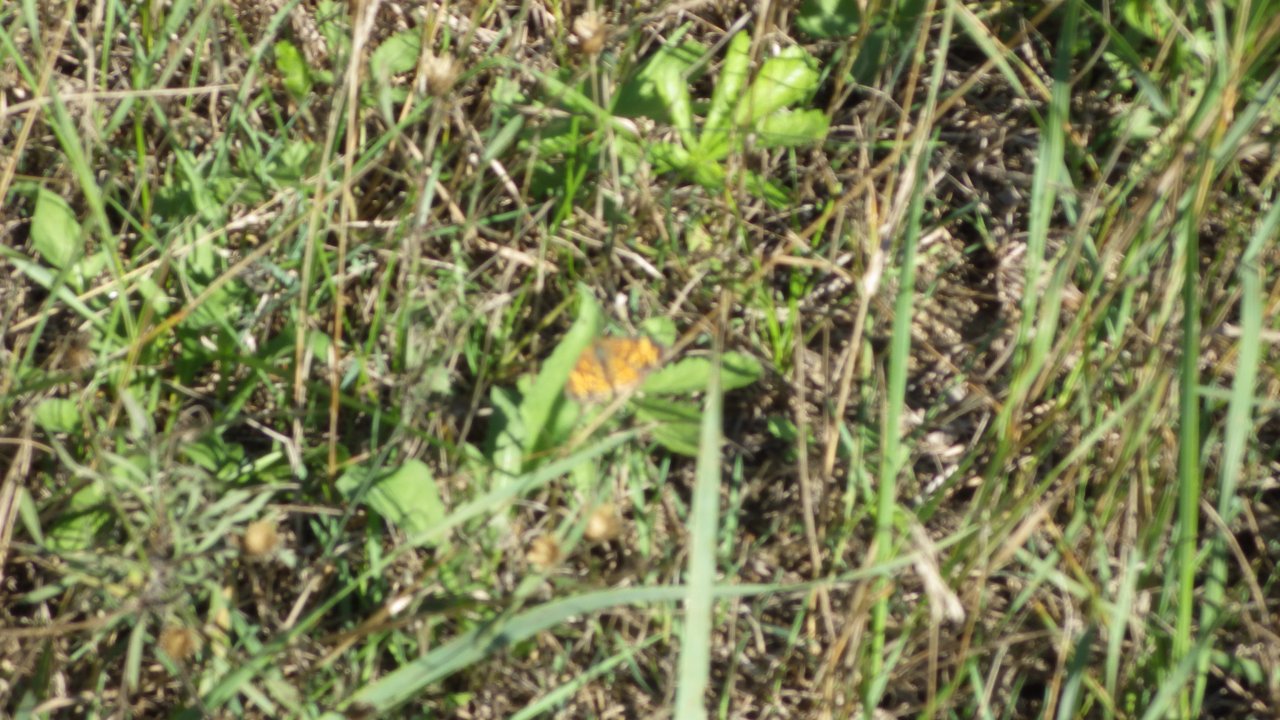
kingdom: Animalia
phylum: Arthropoda
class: Insecta
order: Lepidoptera
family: Nymphalidae
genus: Phyciodes
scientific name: Phyciodes
